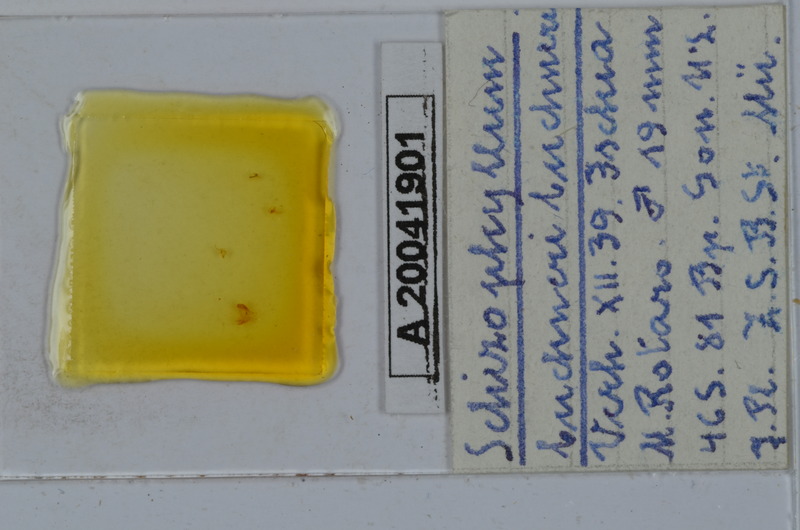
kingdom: Animalia
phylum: Arthropoda
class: Diplopoda
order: Julida
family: Julidae
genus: Ommatoiulus
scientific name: Ommatoiulus buchneri
